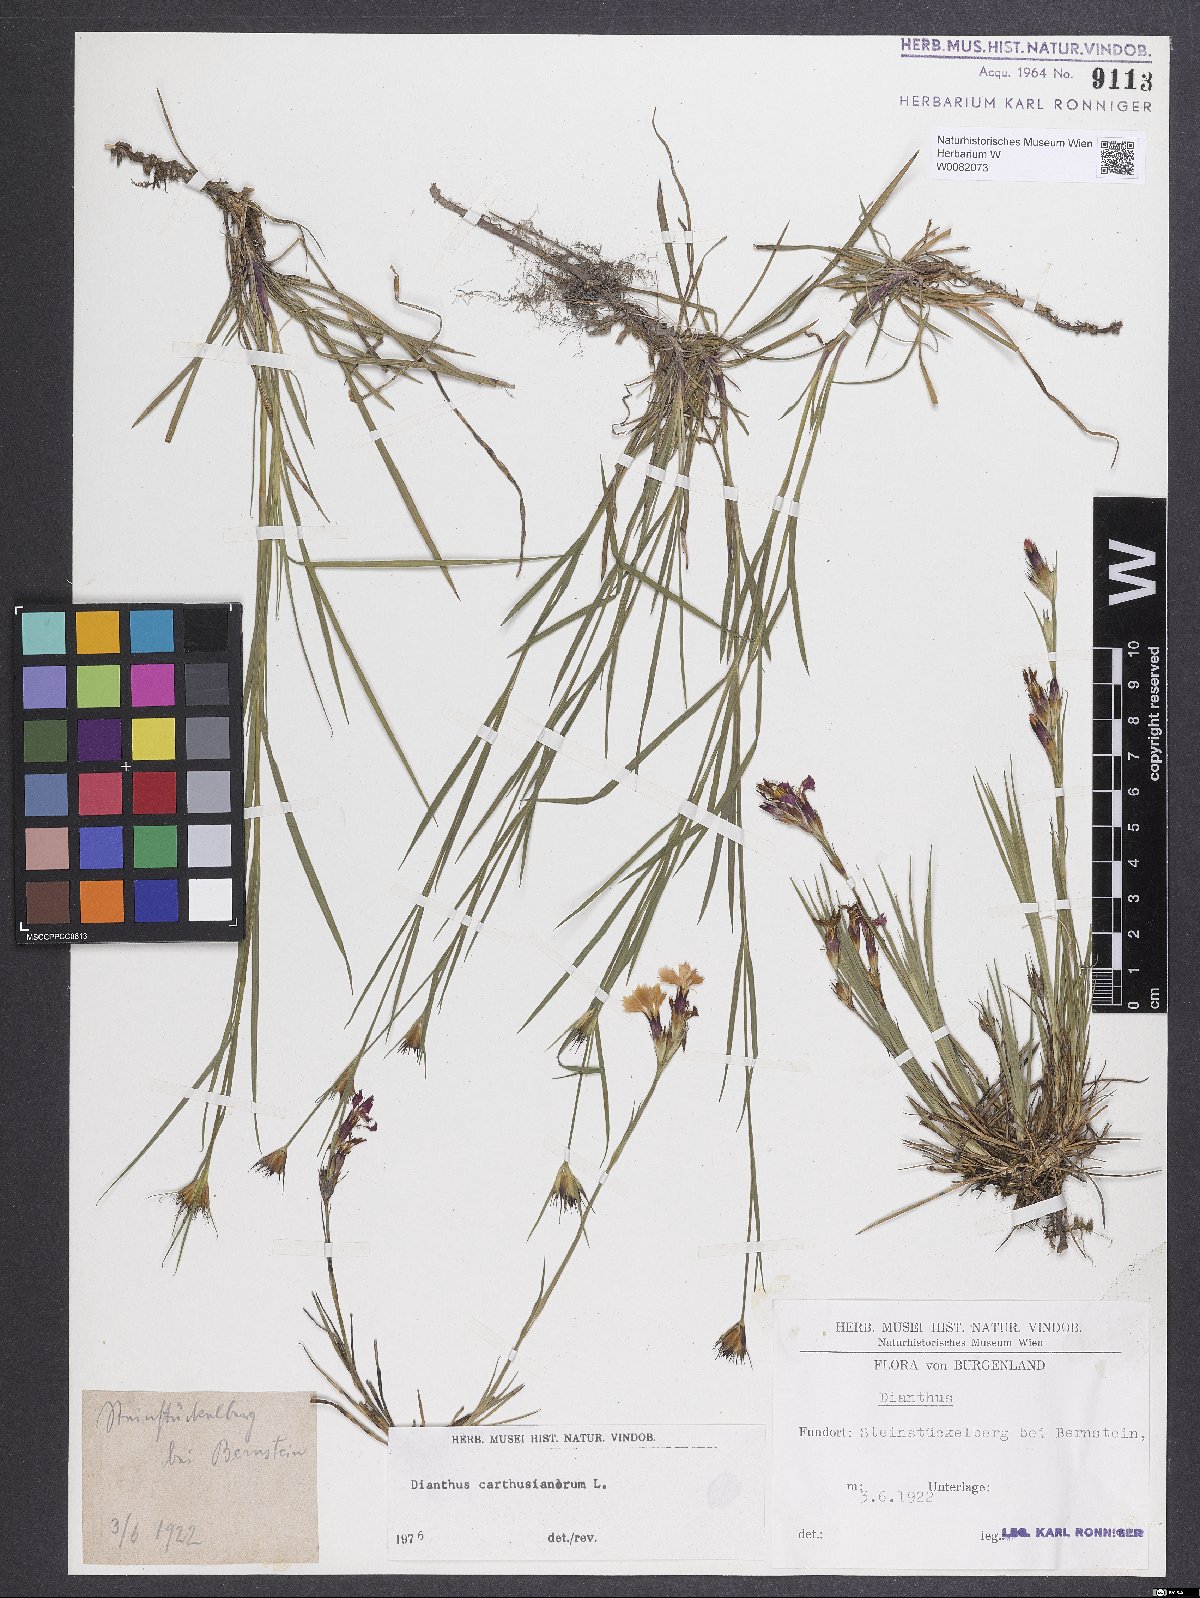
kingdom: Plantae
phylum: Tracheophyta
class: Magnoliopsida
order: Caryophyllales
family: Caryophyllaceae
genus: Dianthus
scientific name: Dianthus carthusianorum
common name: Carthusian pink
